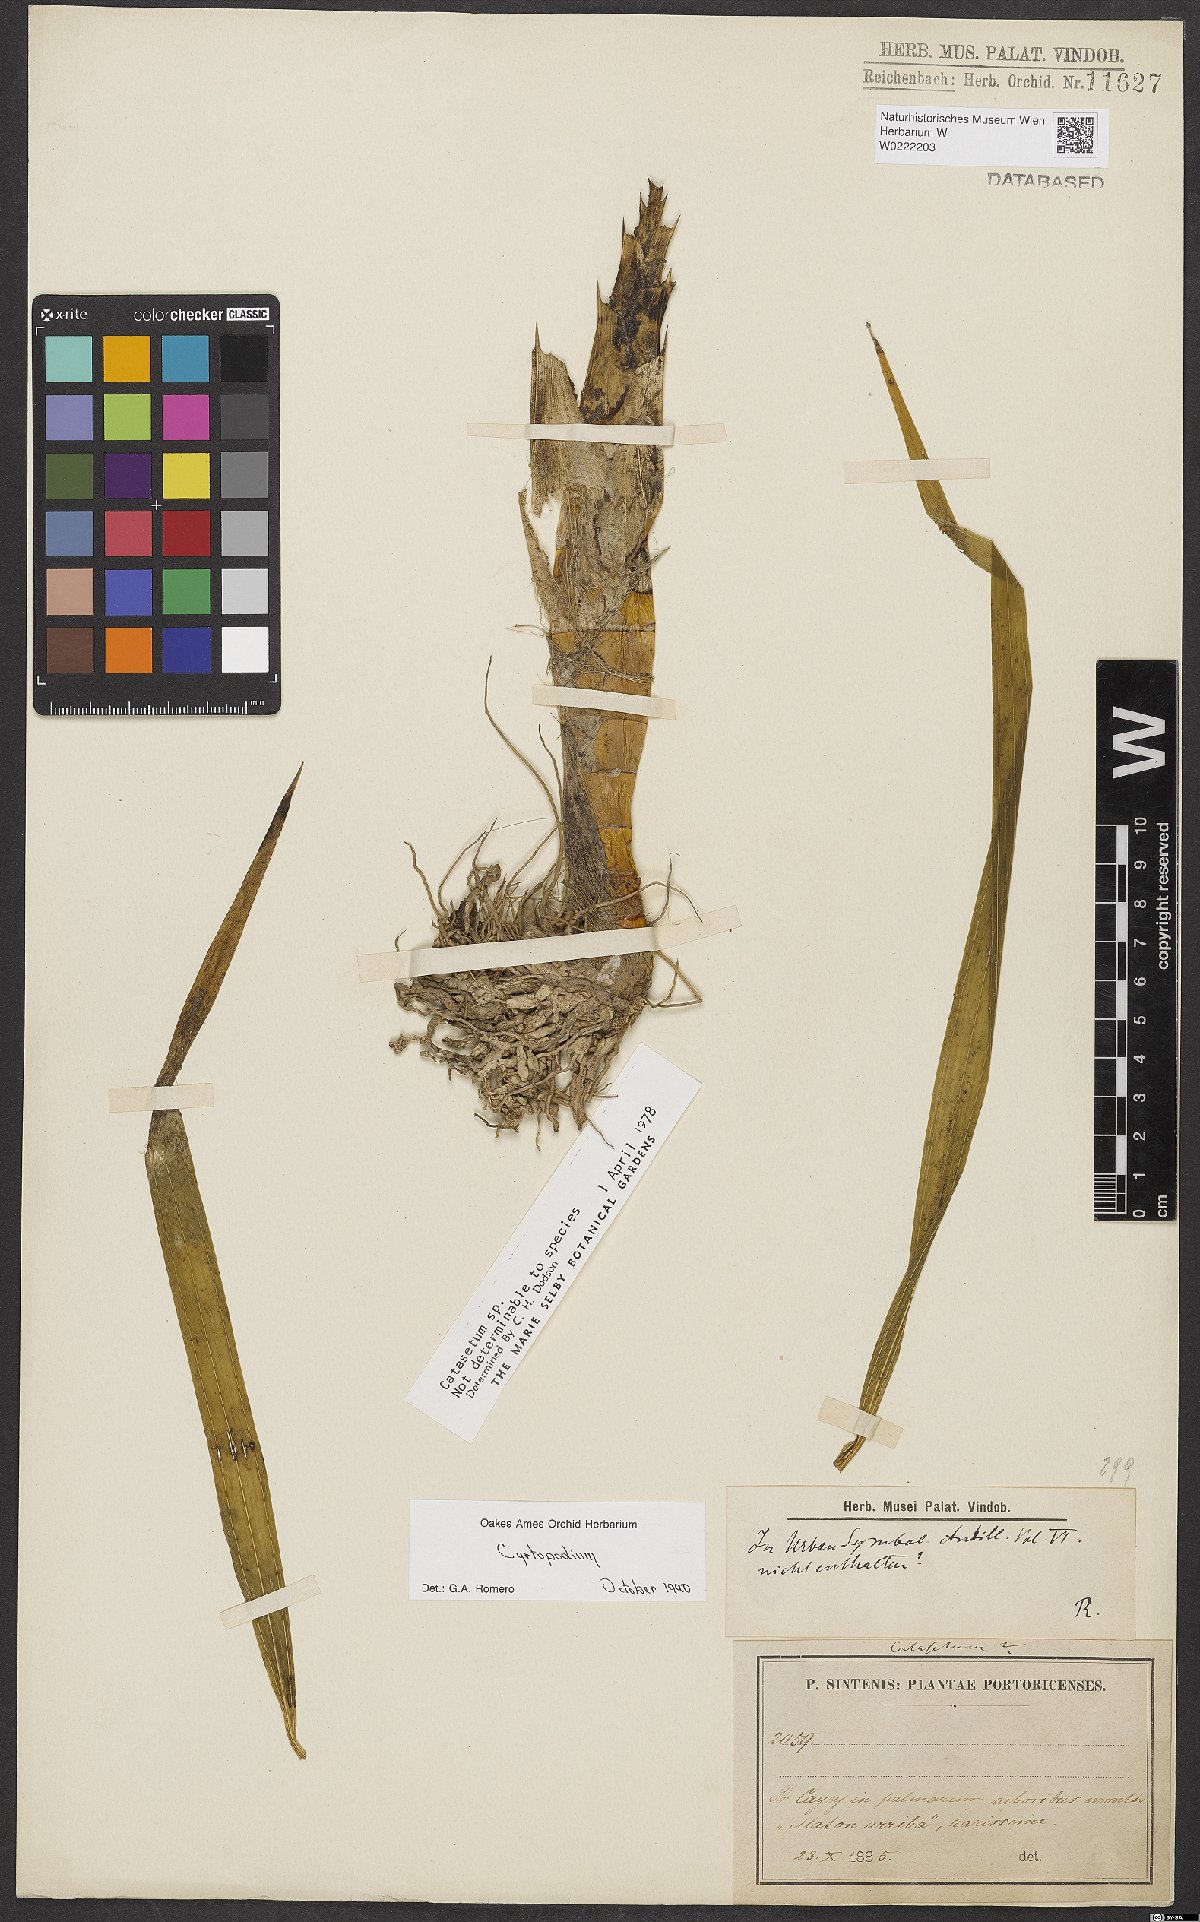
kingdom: Plantae
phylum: Tracheophyta
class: Liliopsida
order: Asparagales
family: Orchidaceae
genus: Cyrtopodium
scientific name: Cyrtopodium
